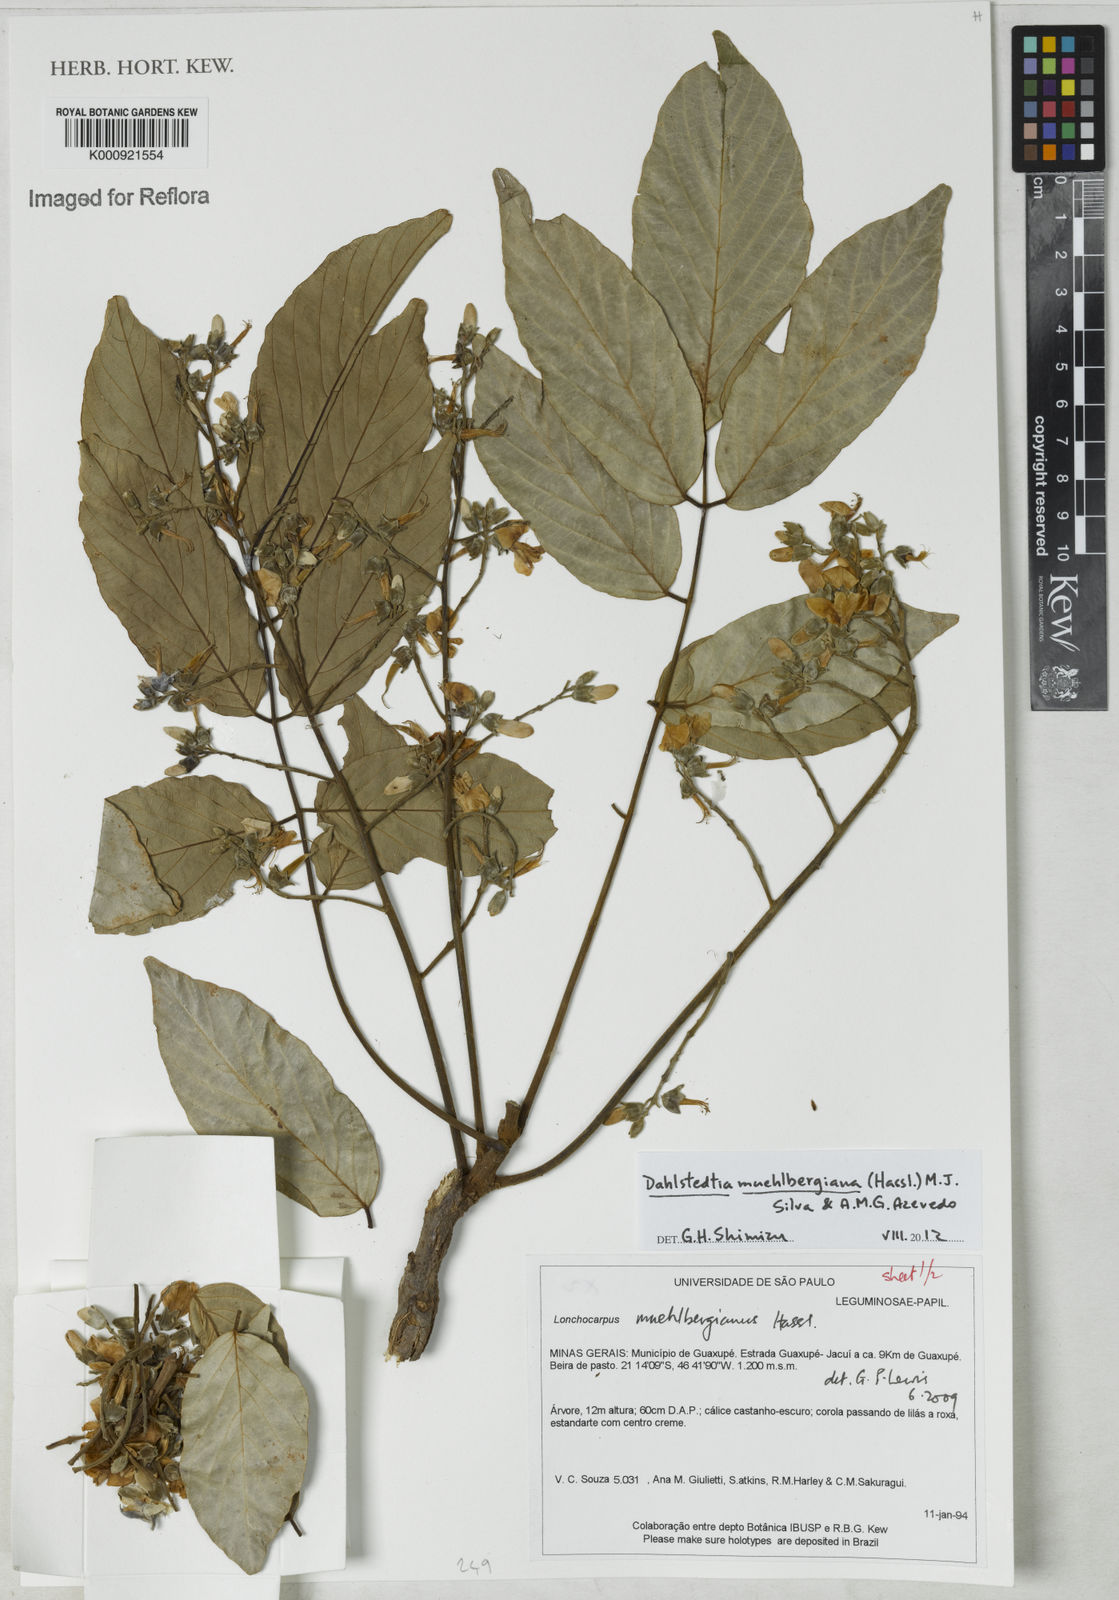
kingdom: Plantae
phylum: Tracheophyta
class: Magnoliopsida
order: Fabales
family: Fabaceae
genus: Dahlstedtia
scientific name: Dahlstedtia muehlbergiana
